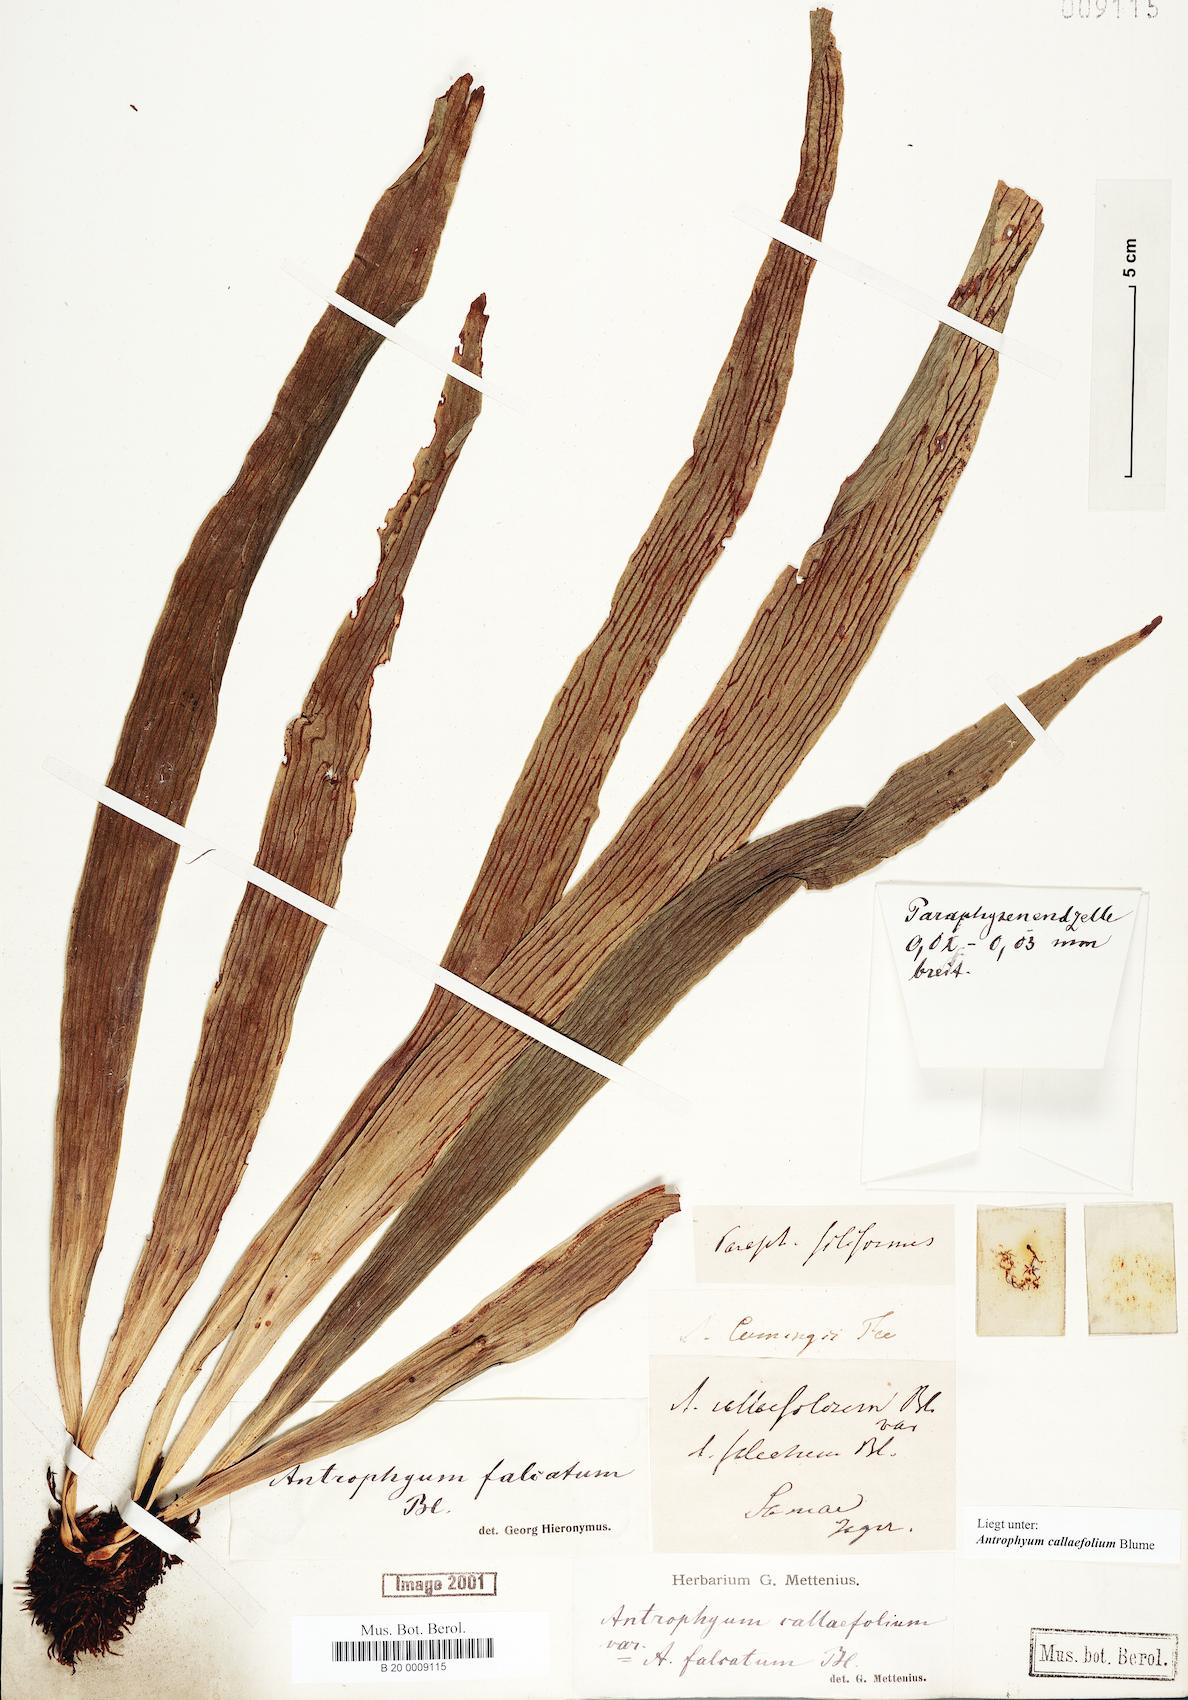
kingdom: Plantae
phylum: Tracheophyta
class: Polypodiopsida
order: Polypodiales
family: Pteridaceae
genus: Antrophyum
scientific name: Antrophyum callifolium
